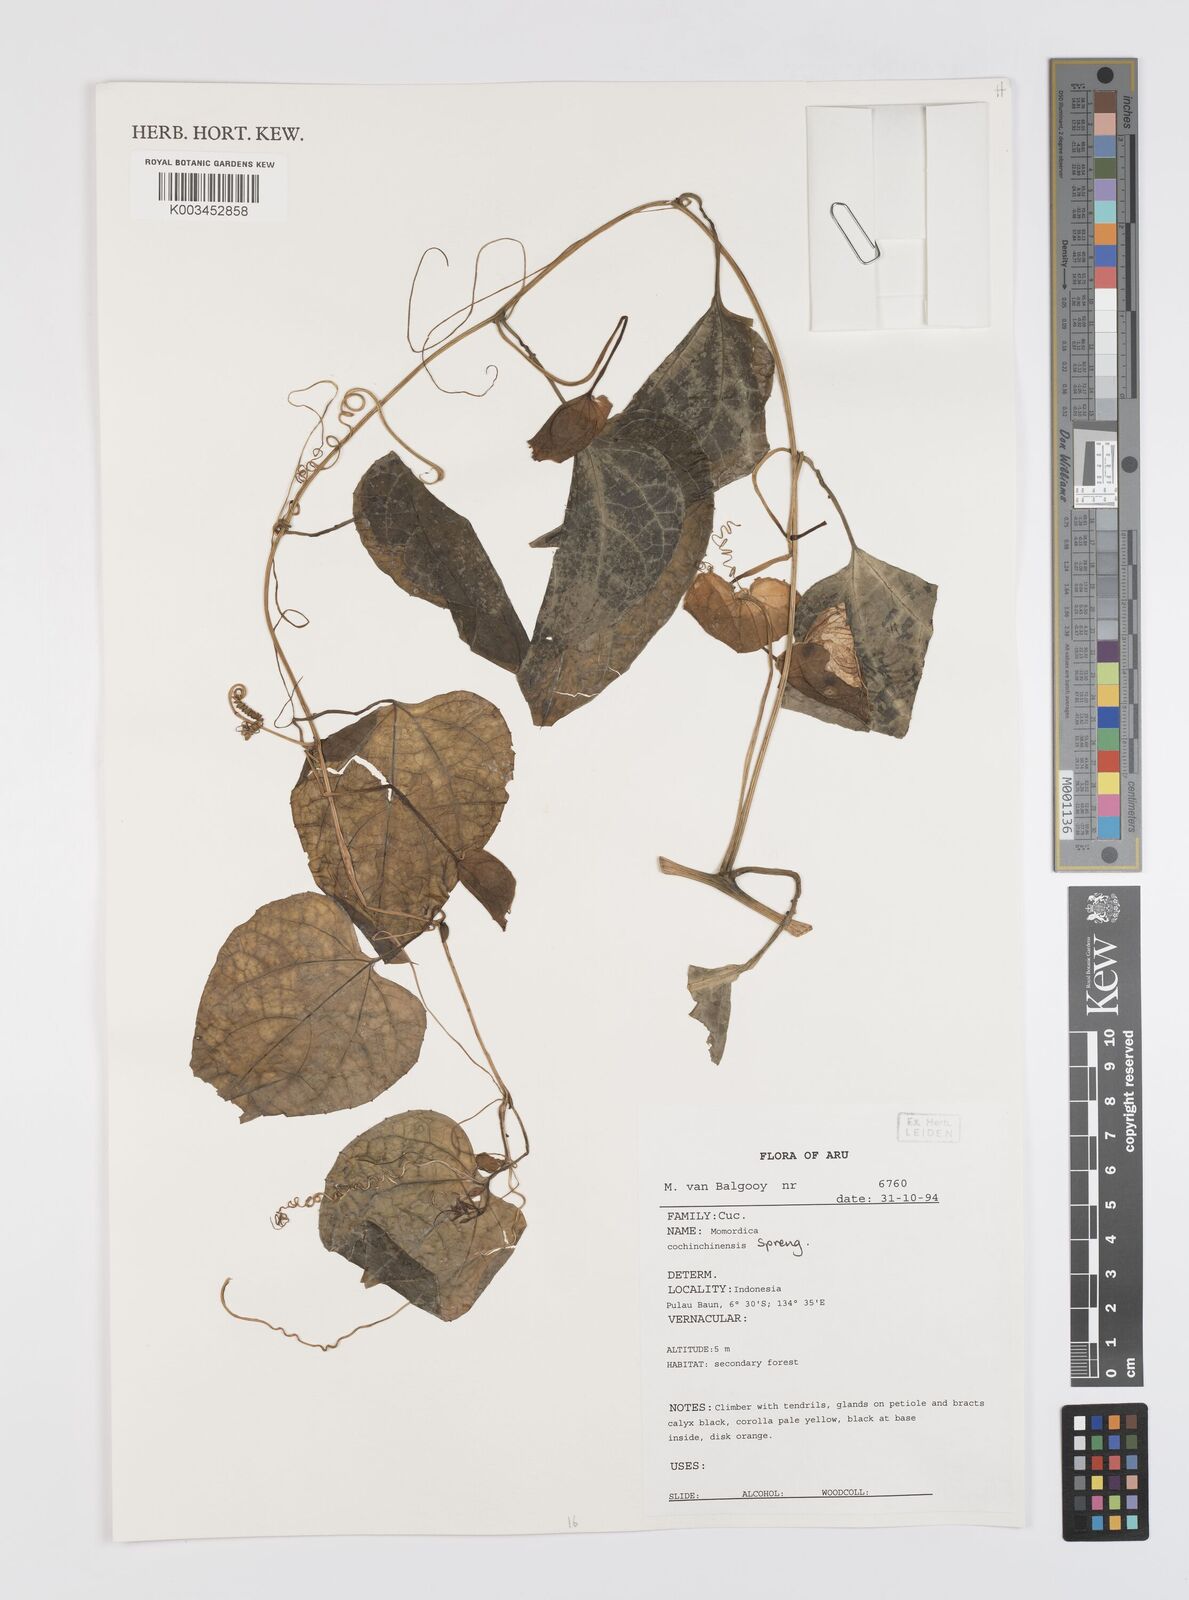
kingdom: Plantae
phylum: Tracheophyta
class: Magnoliopsida
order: Cucurbitales
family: Cucurbitaceae
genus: Momordica
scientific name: Momordica cochinchinensis
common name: Chinese bitter-cucumber
